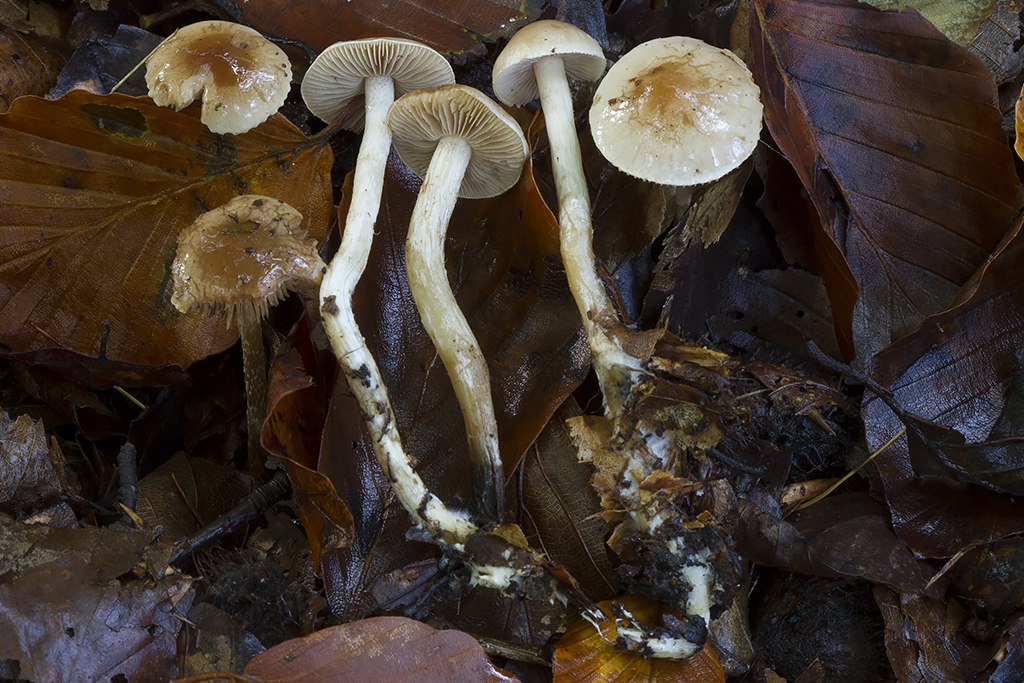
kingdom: Fungi
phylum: Basidiomycota
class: Agaricomycetes
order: Agaricales
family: Hymenogastraceae
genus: Hebeloma
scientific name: Hebeloma birrus
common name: rodslående tåreblad
